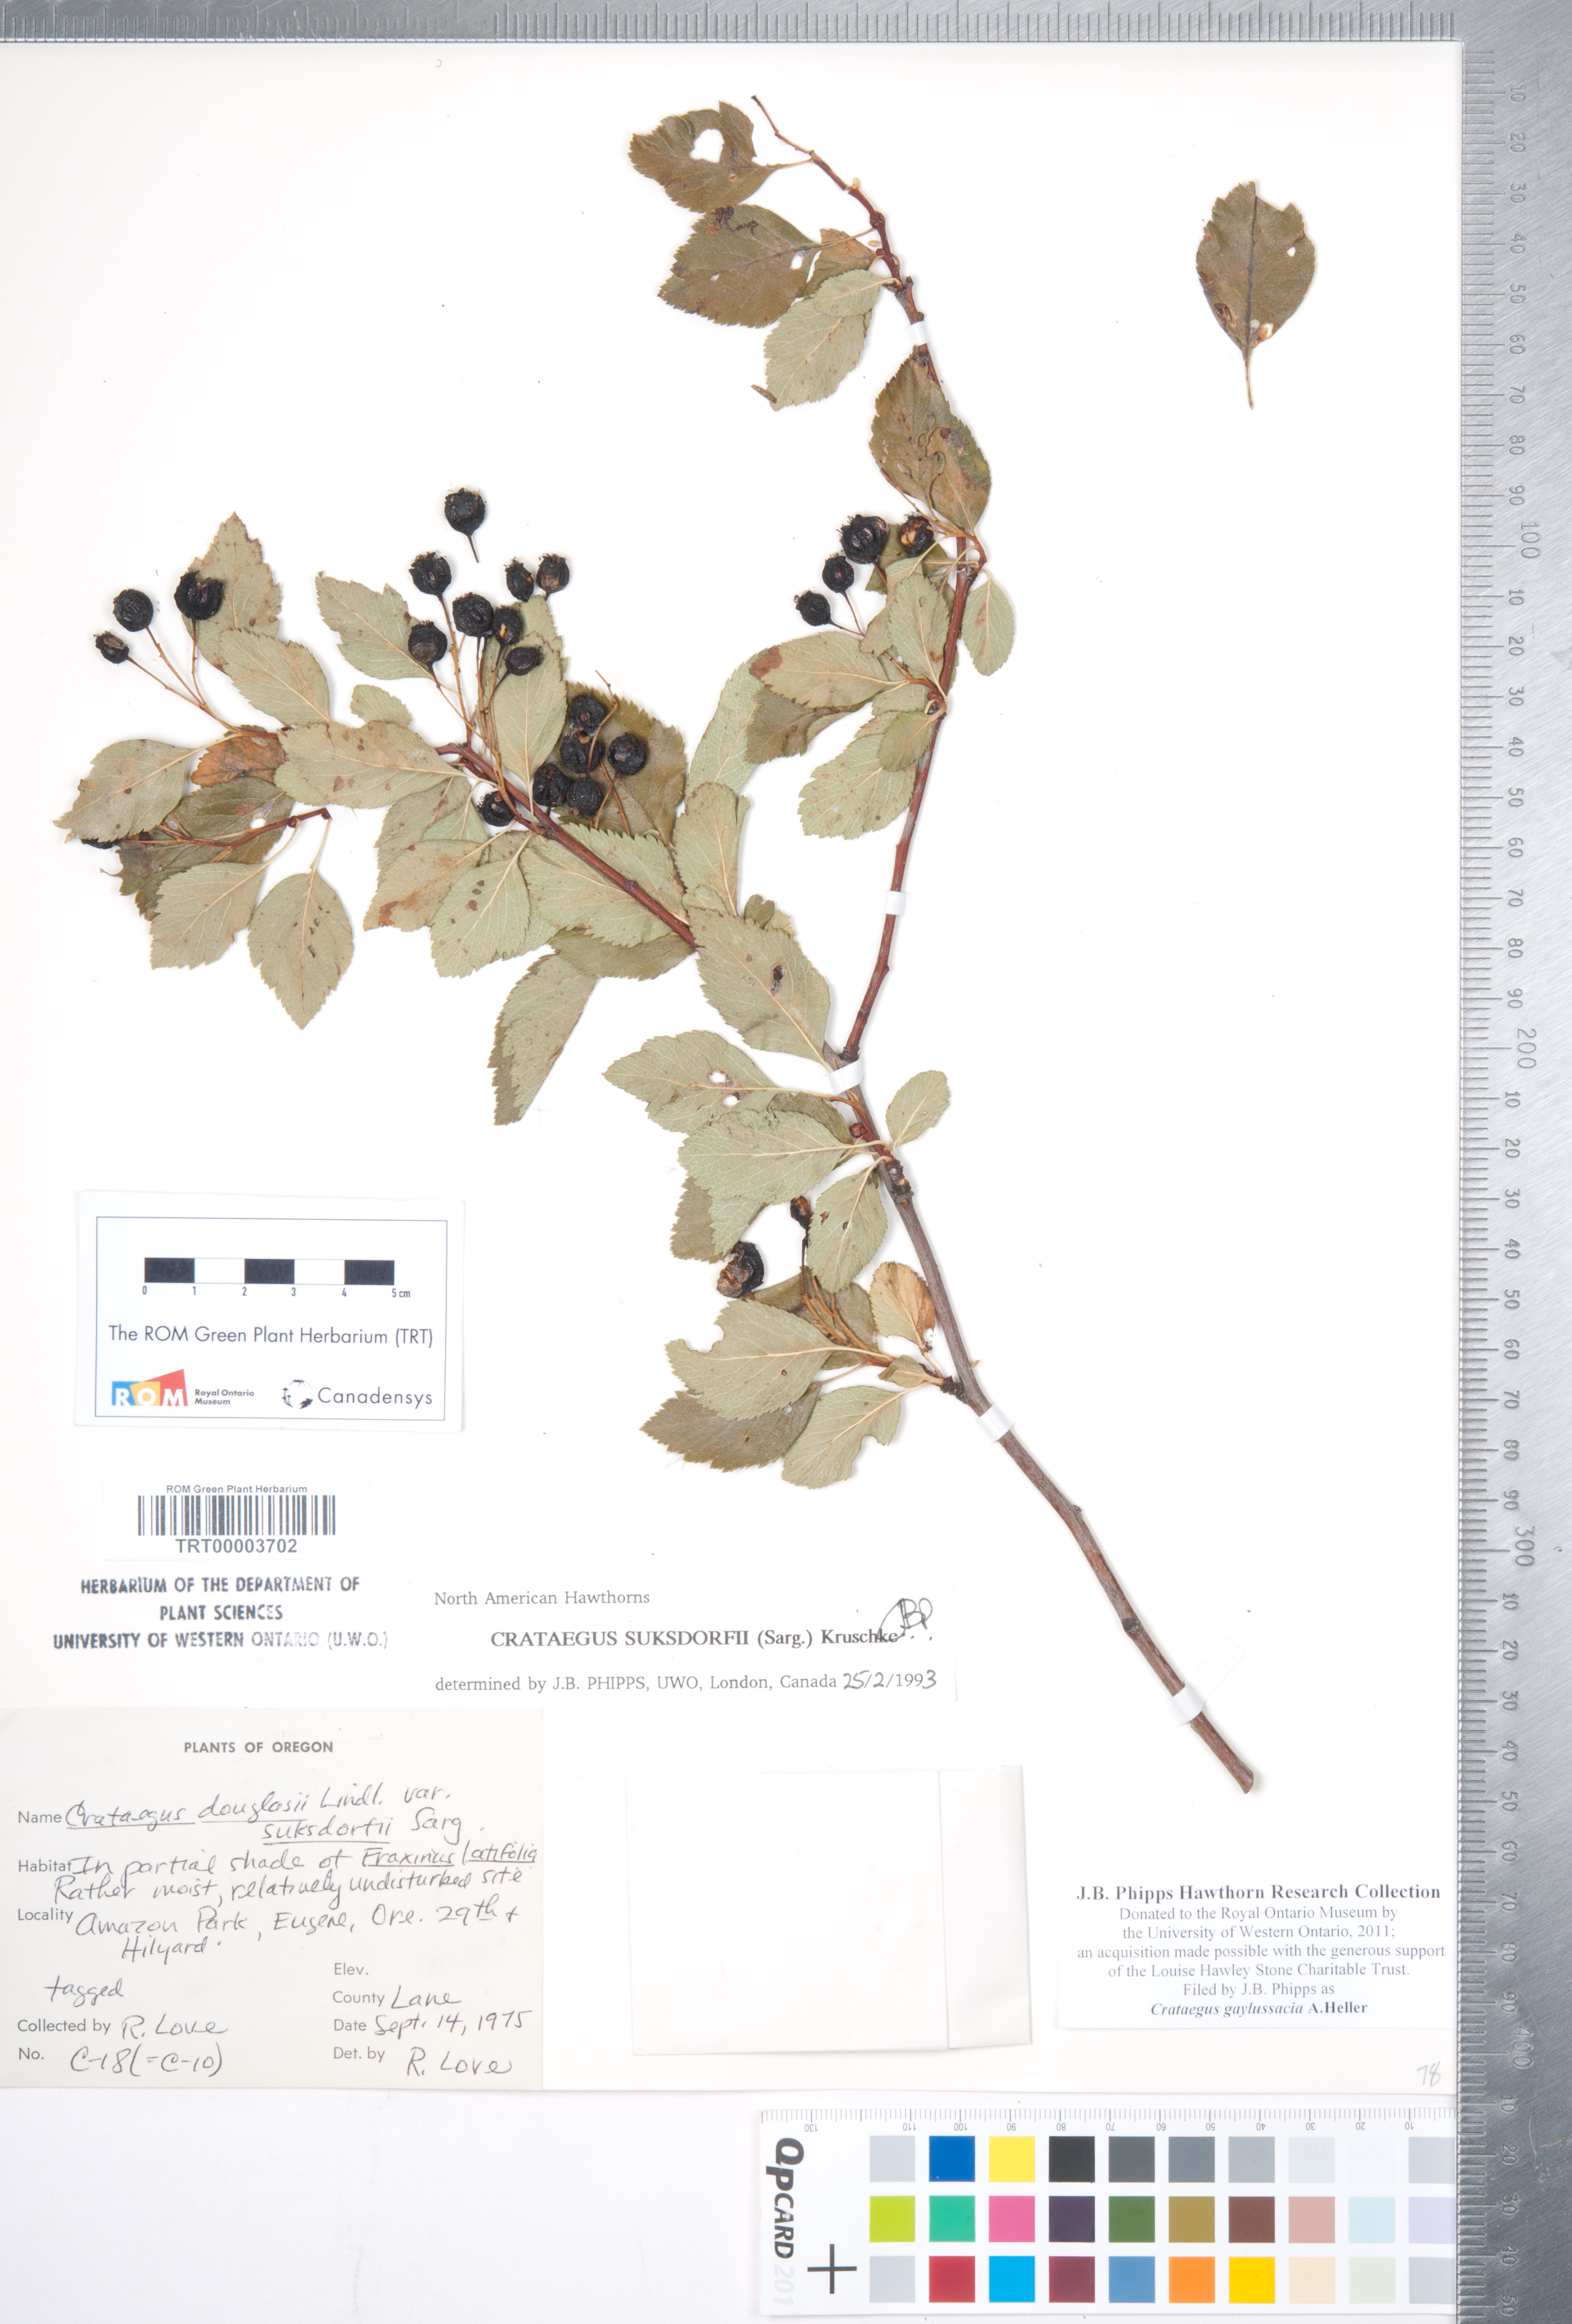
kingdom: Plantae
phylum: Tracheophyta
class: Magnoliopsida
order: Rosales
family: Rosaceae
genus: Crataegus
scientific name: Crataegus gaylussacia
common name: Huckleberry hawthorn
